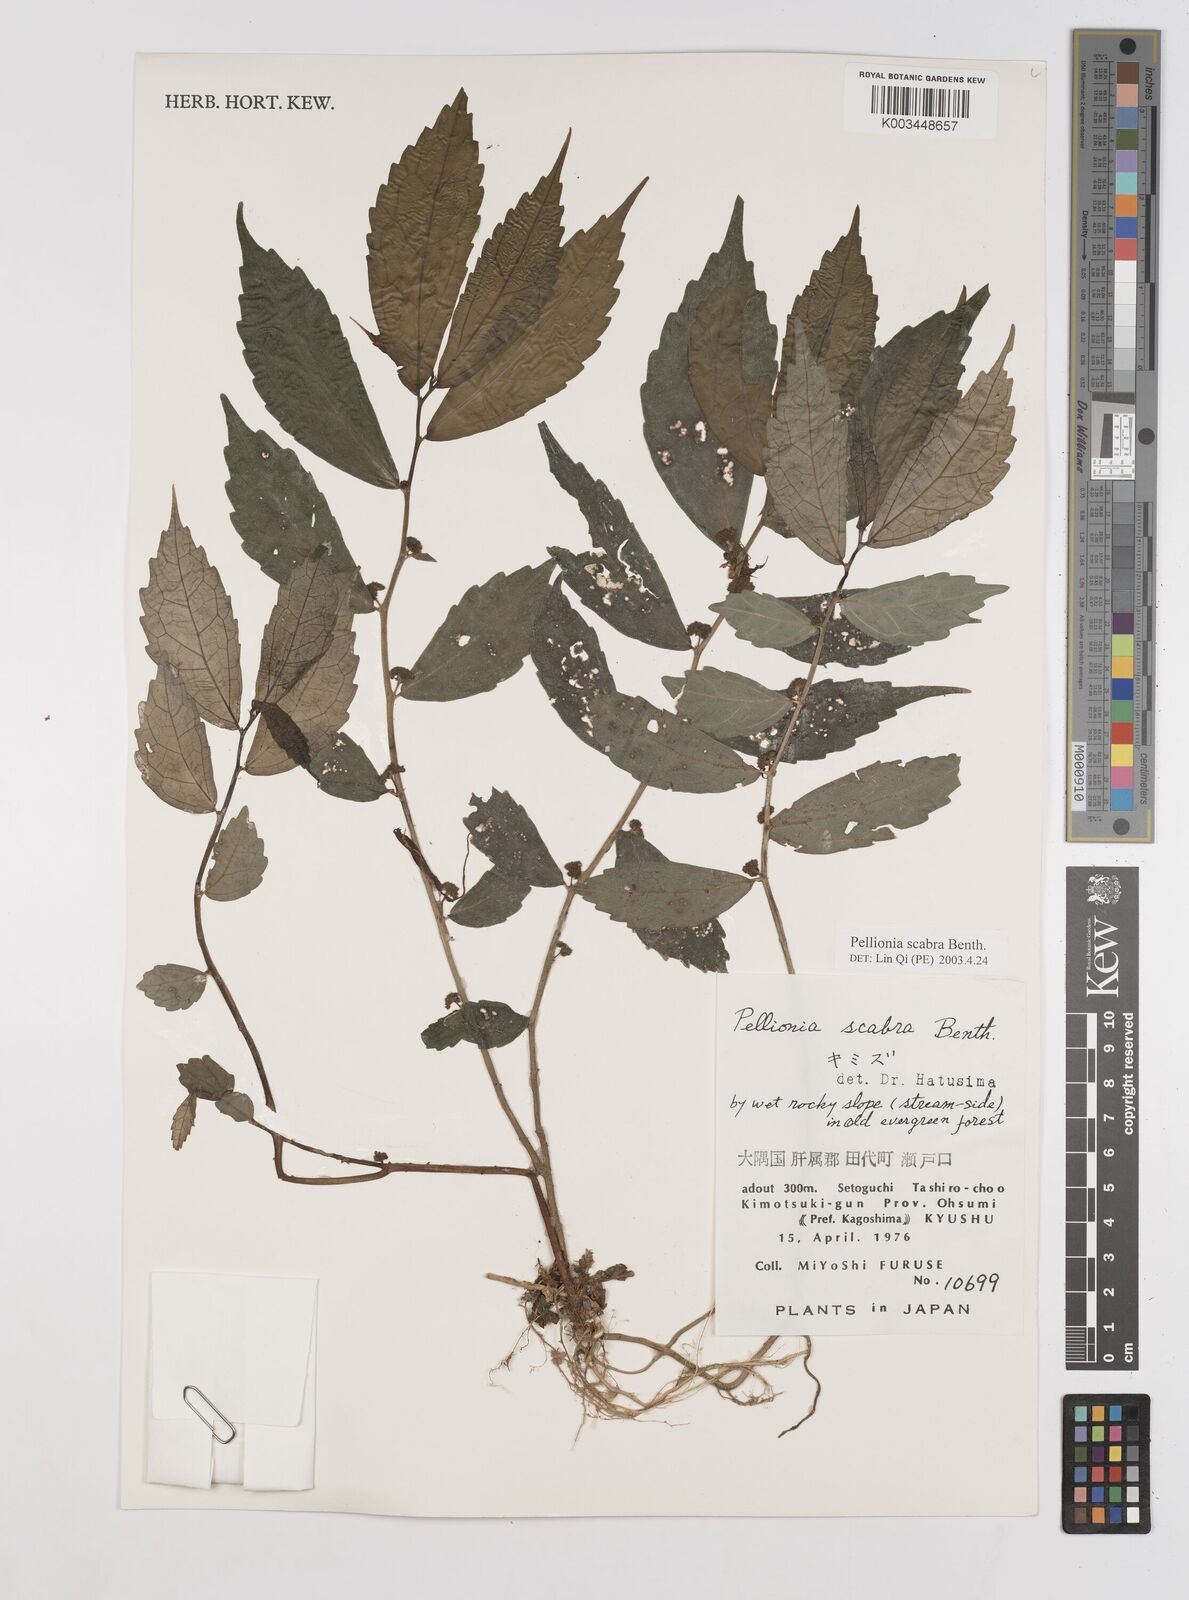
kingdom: Plantae
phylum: Tracheophyta
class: Magnoliopsida
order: Rosales
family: Urticaceae
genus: Elatostema
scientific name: Elatostema
